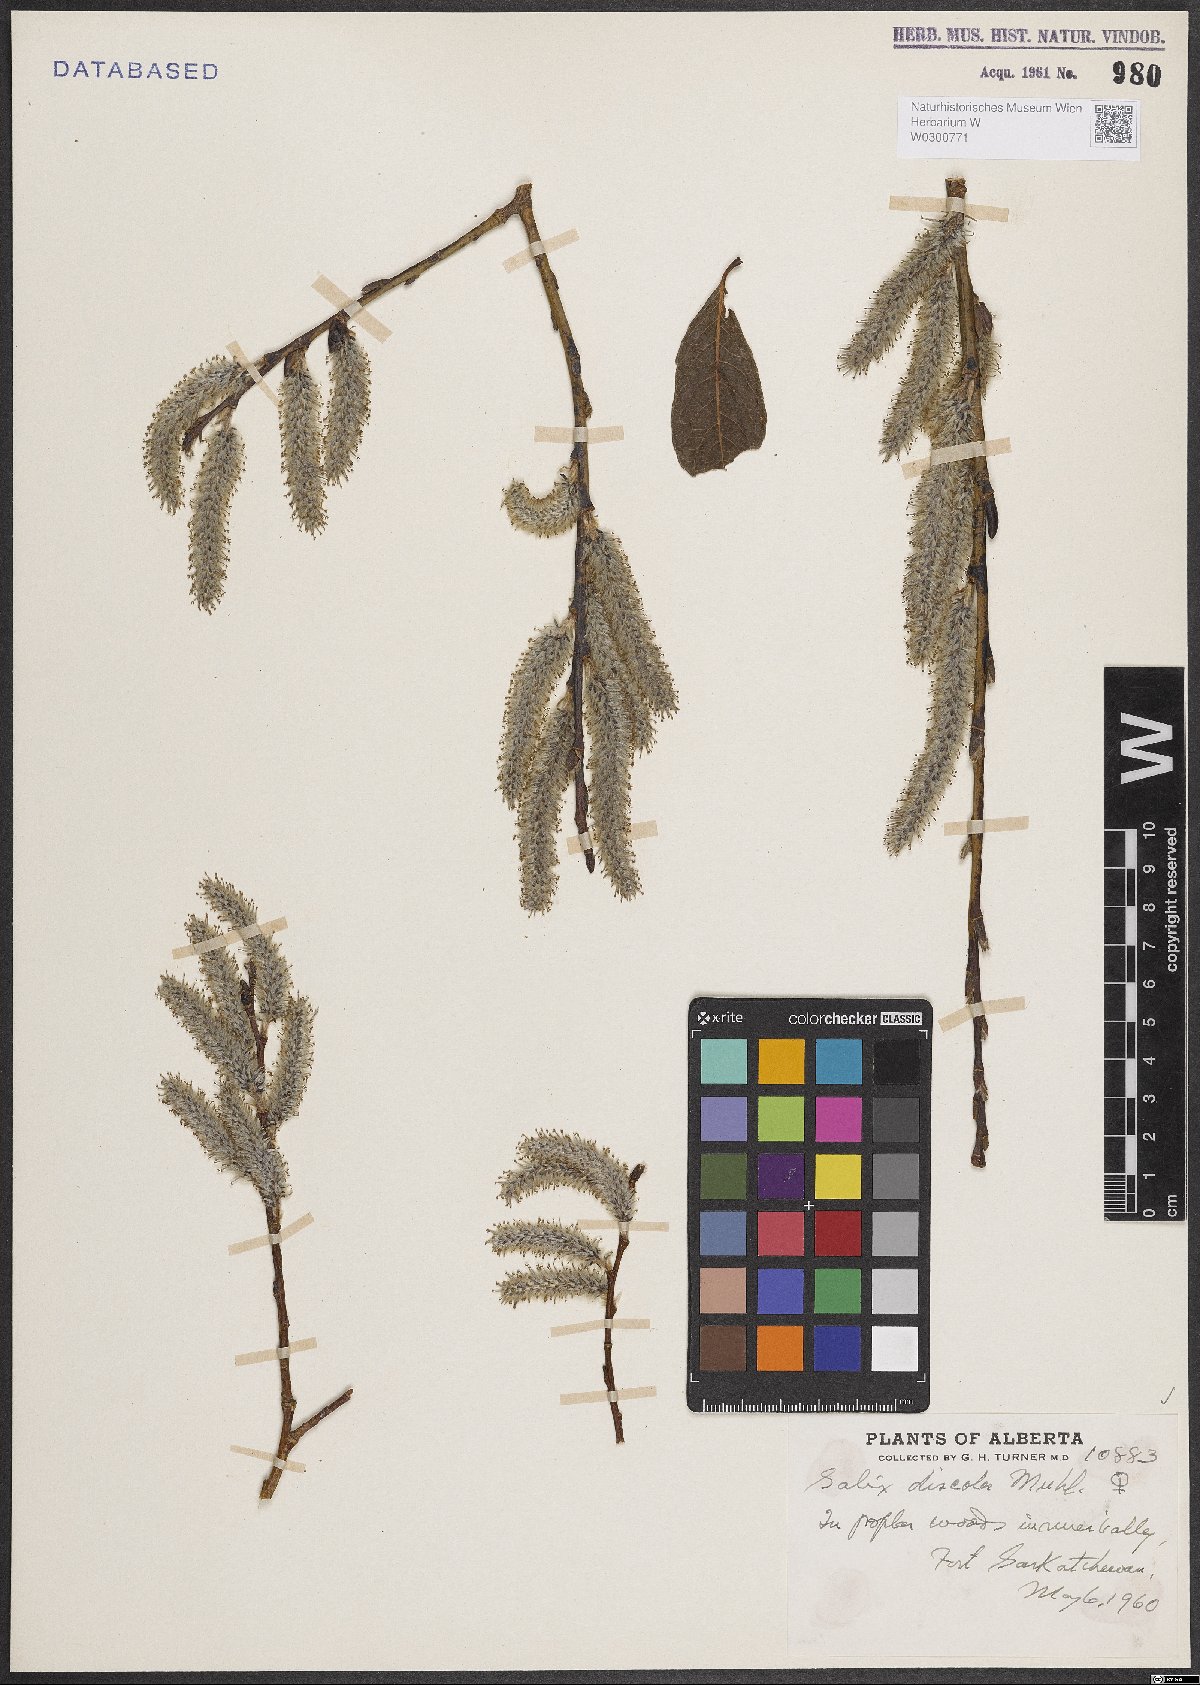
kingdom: Plantae
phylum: Tracheophyta
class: Magnoliopsida
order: Malpighiales
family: Salicaceae
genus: Salix
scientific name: Salix discolor
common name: Glaucous willow
